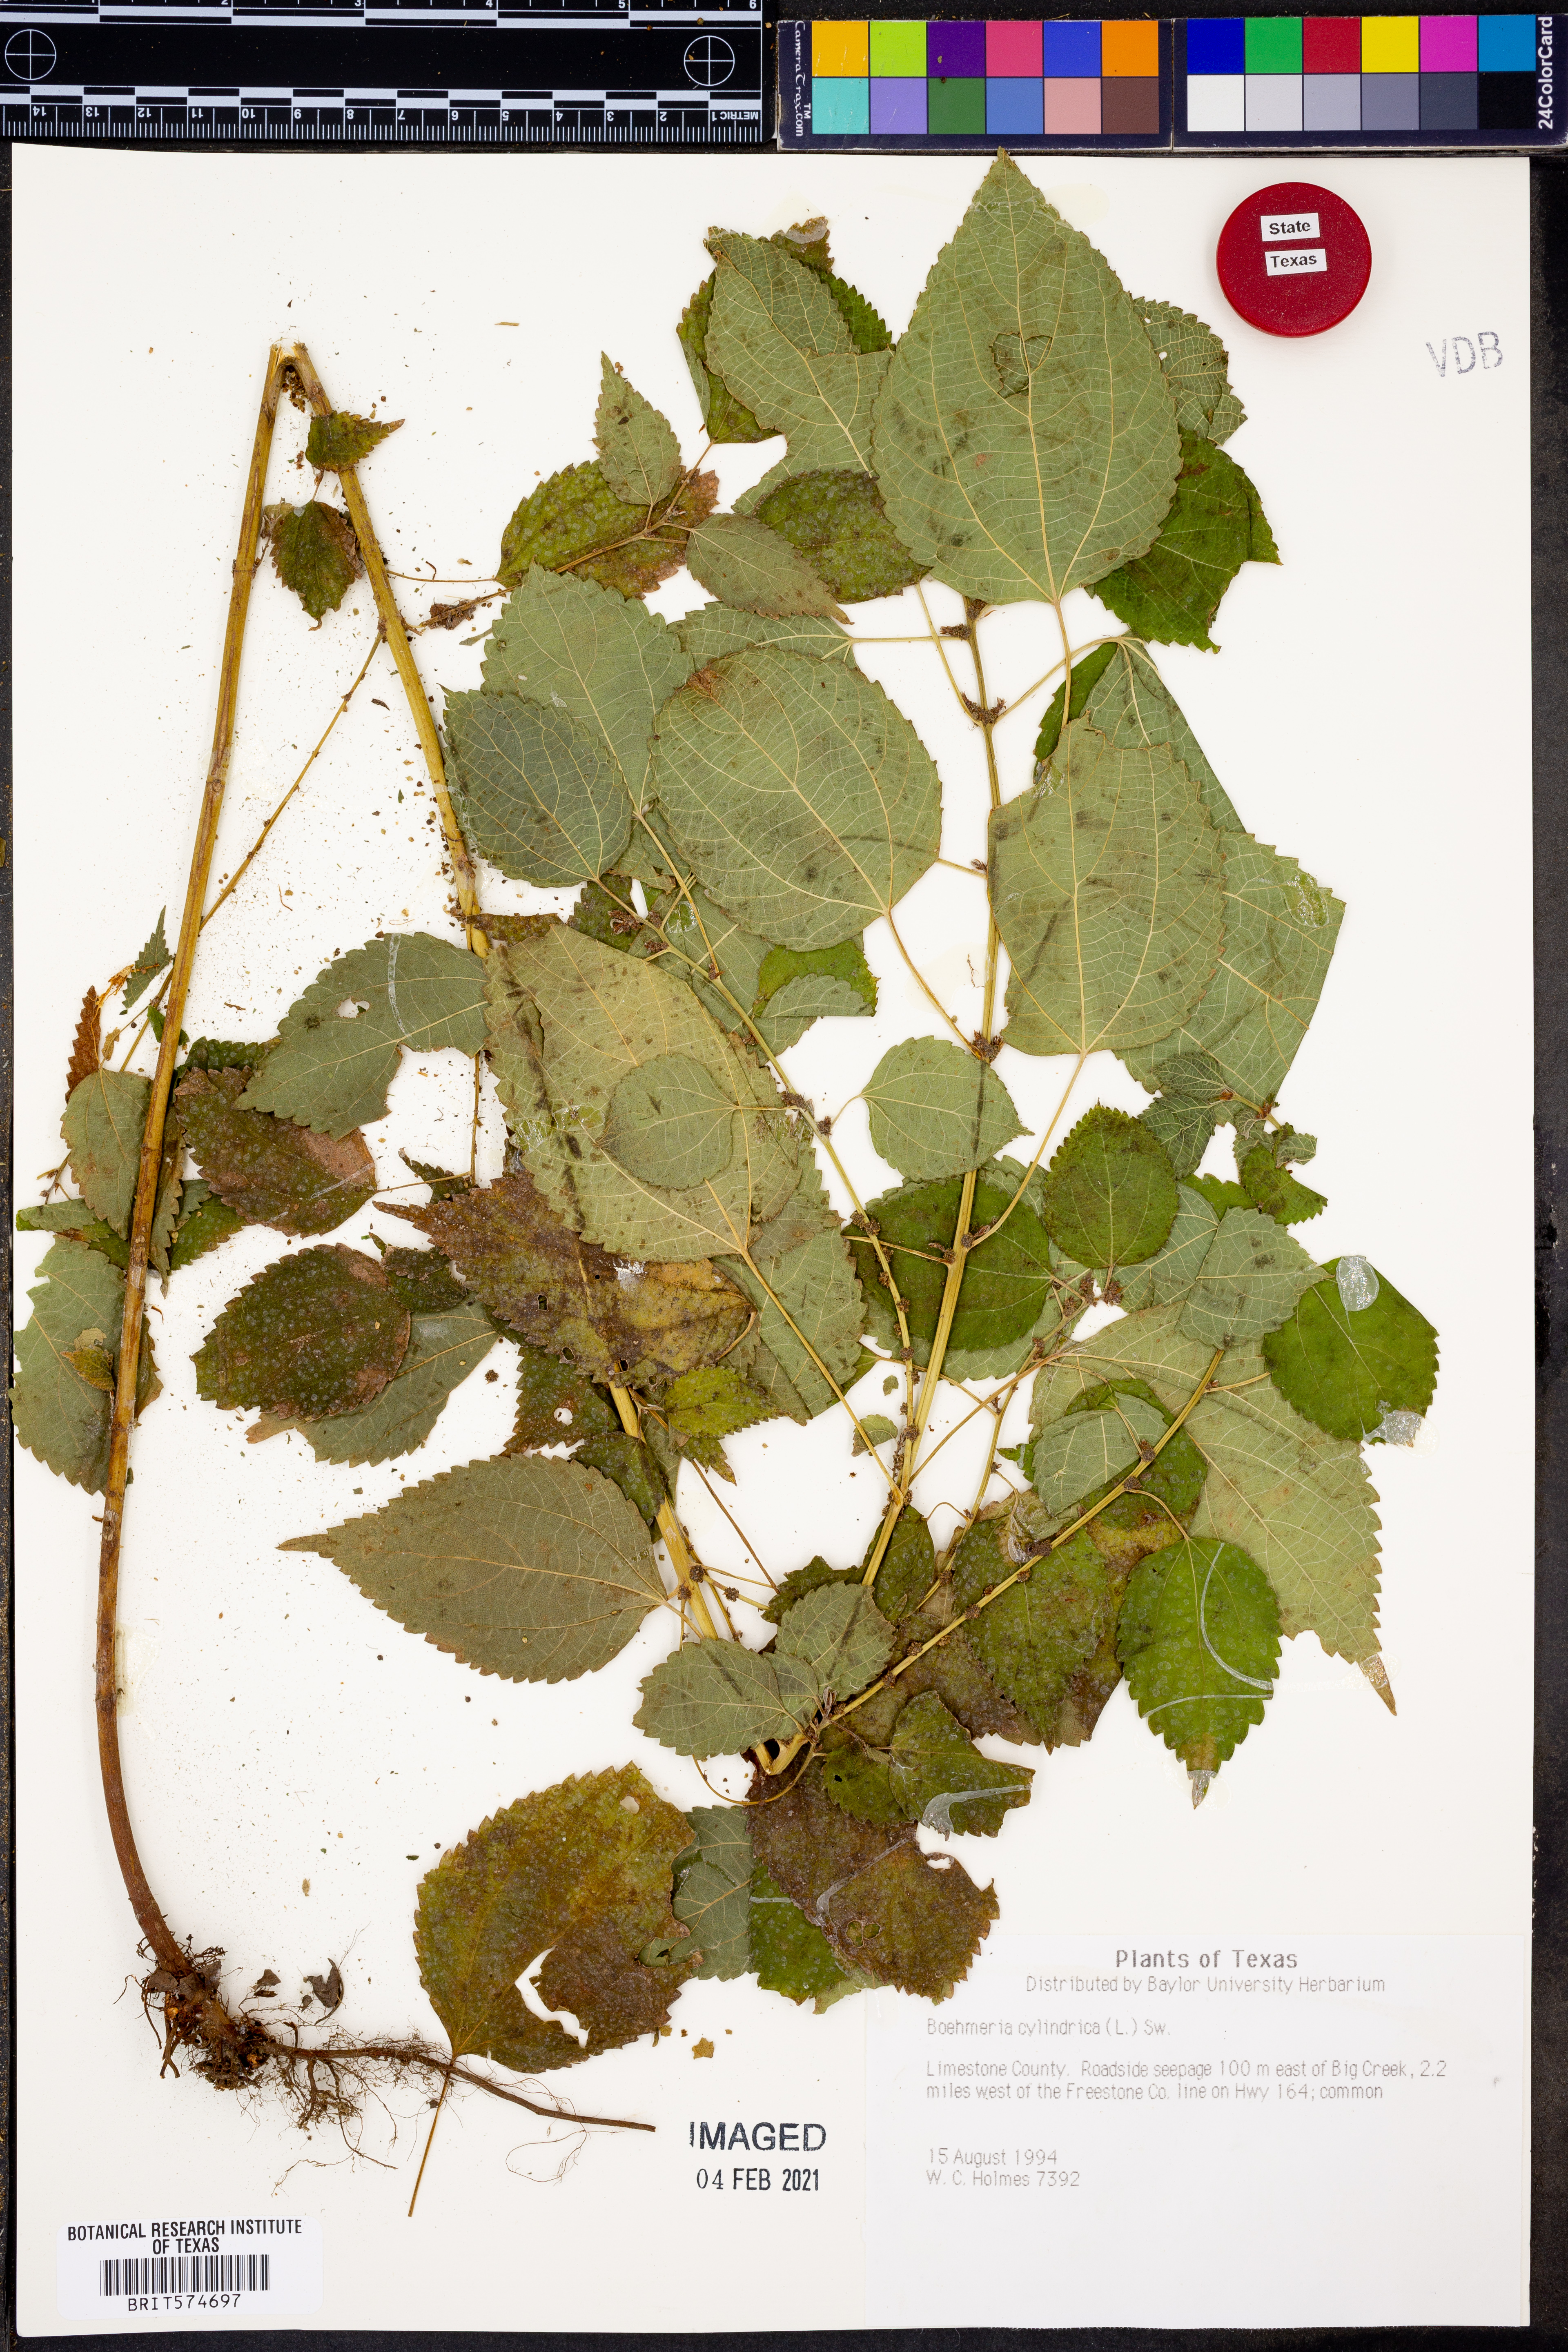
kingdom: Plantae
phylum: Tracheophyta
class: Magnoliopsida
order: Rosales
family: Urticaceae
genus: Boehmeria
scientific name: Boehmeria cylindrica
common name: Bog-hemp
